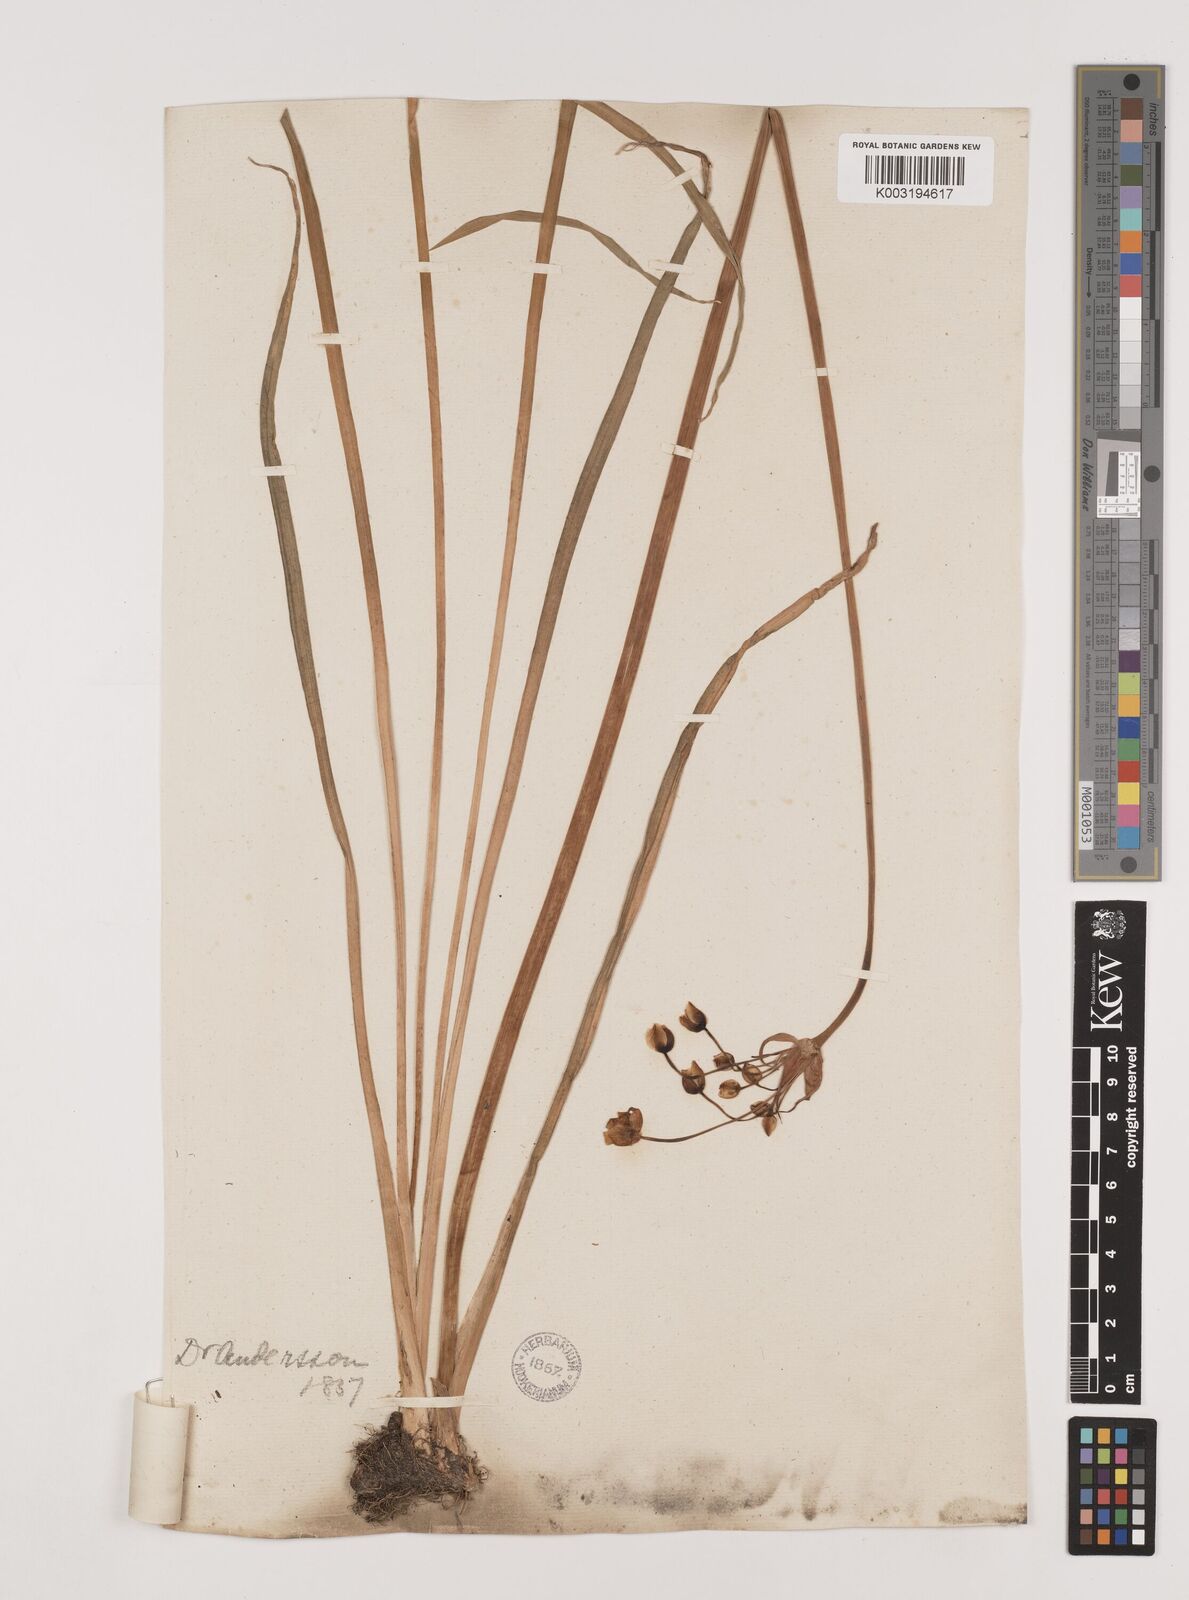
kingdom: Plantae
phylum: Tracheophyta
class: Liliopsida
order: Alismatales
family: Butomaceae
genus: Butomus
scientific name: Butomus umbellatus
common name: Flowering-rush
